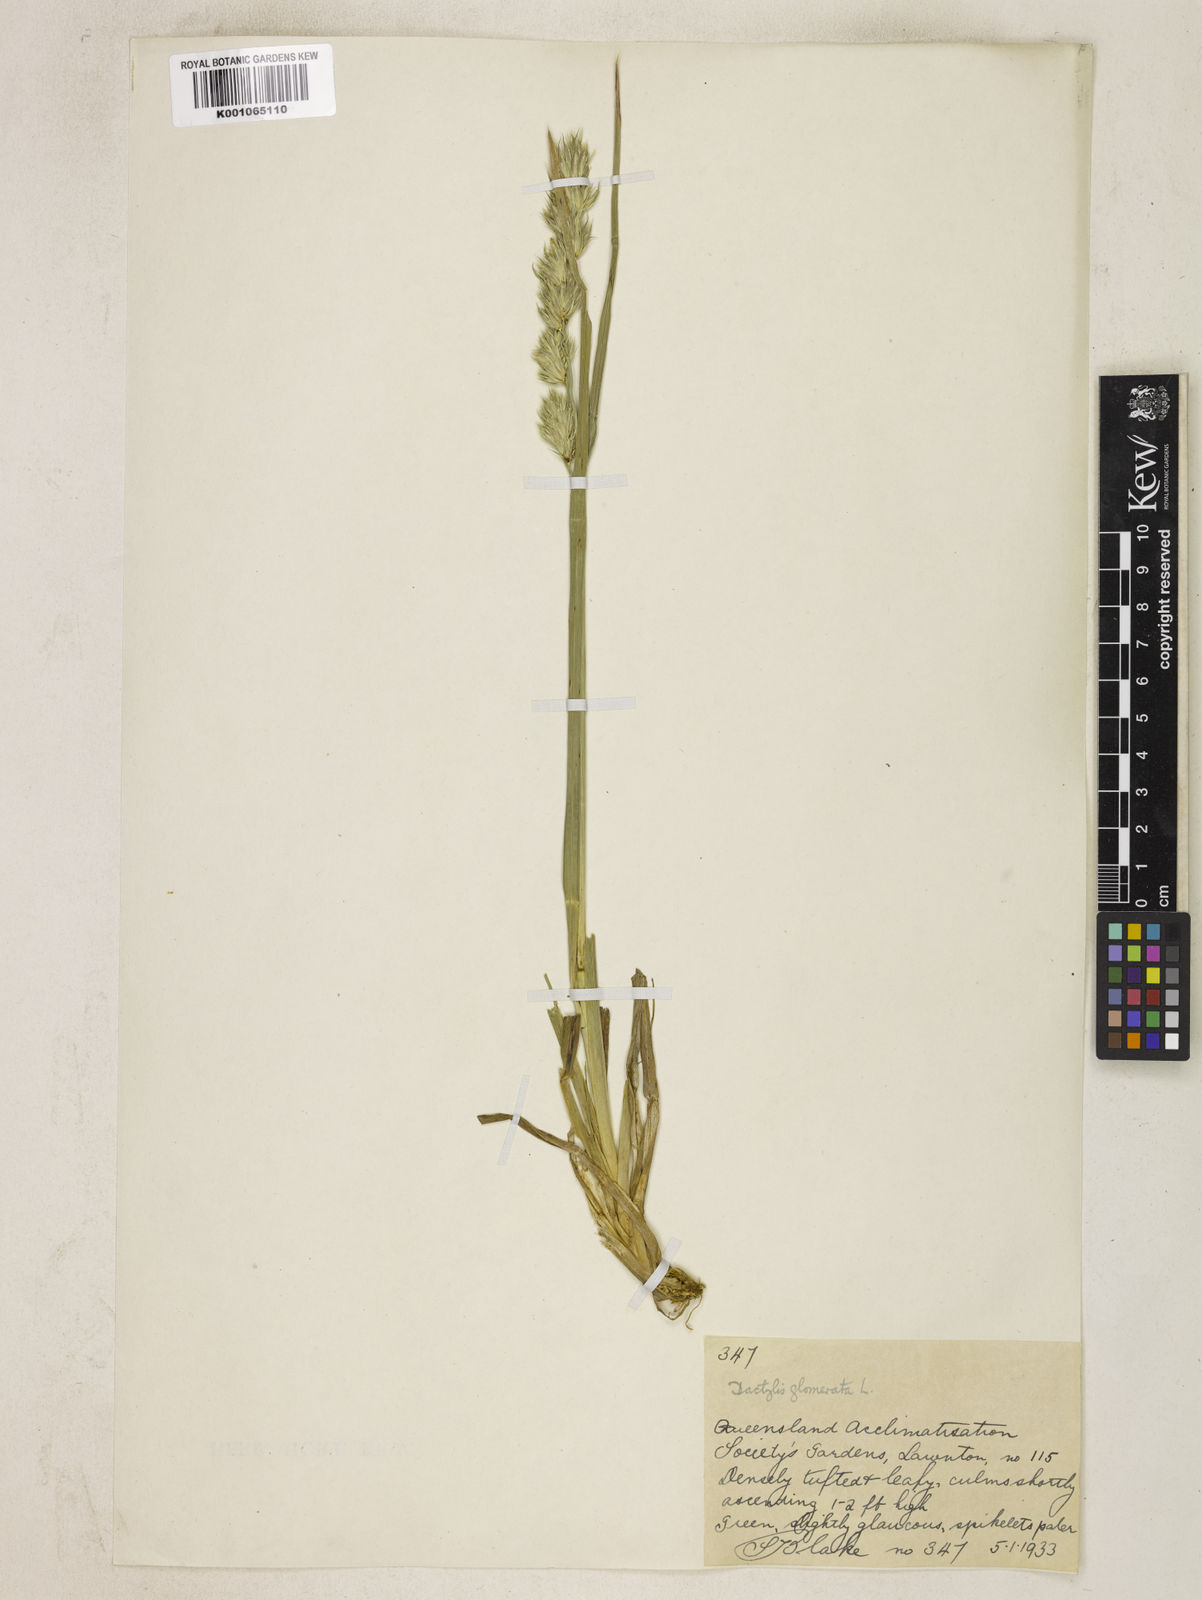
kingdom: Plantae
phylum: Tracheophyta
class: Liliopsida
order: Poales
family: Poaceae
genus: Dactylis
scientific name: Dactylis glomerata
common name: Orchardgrass
